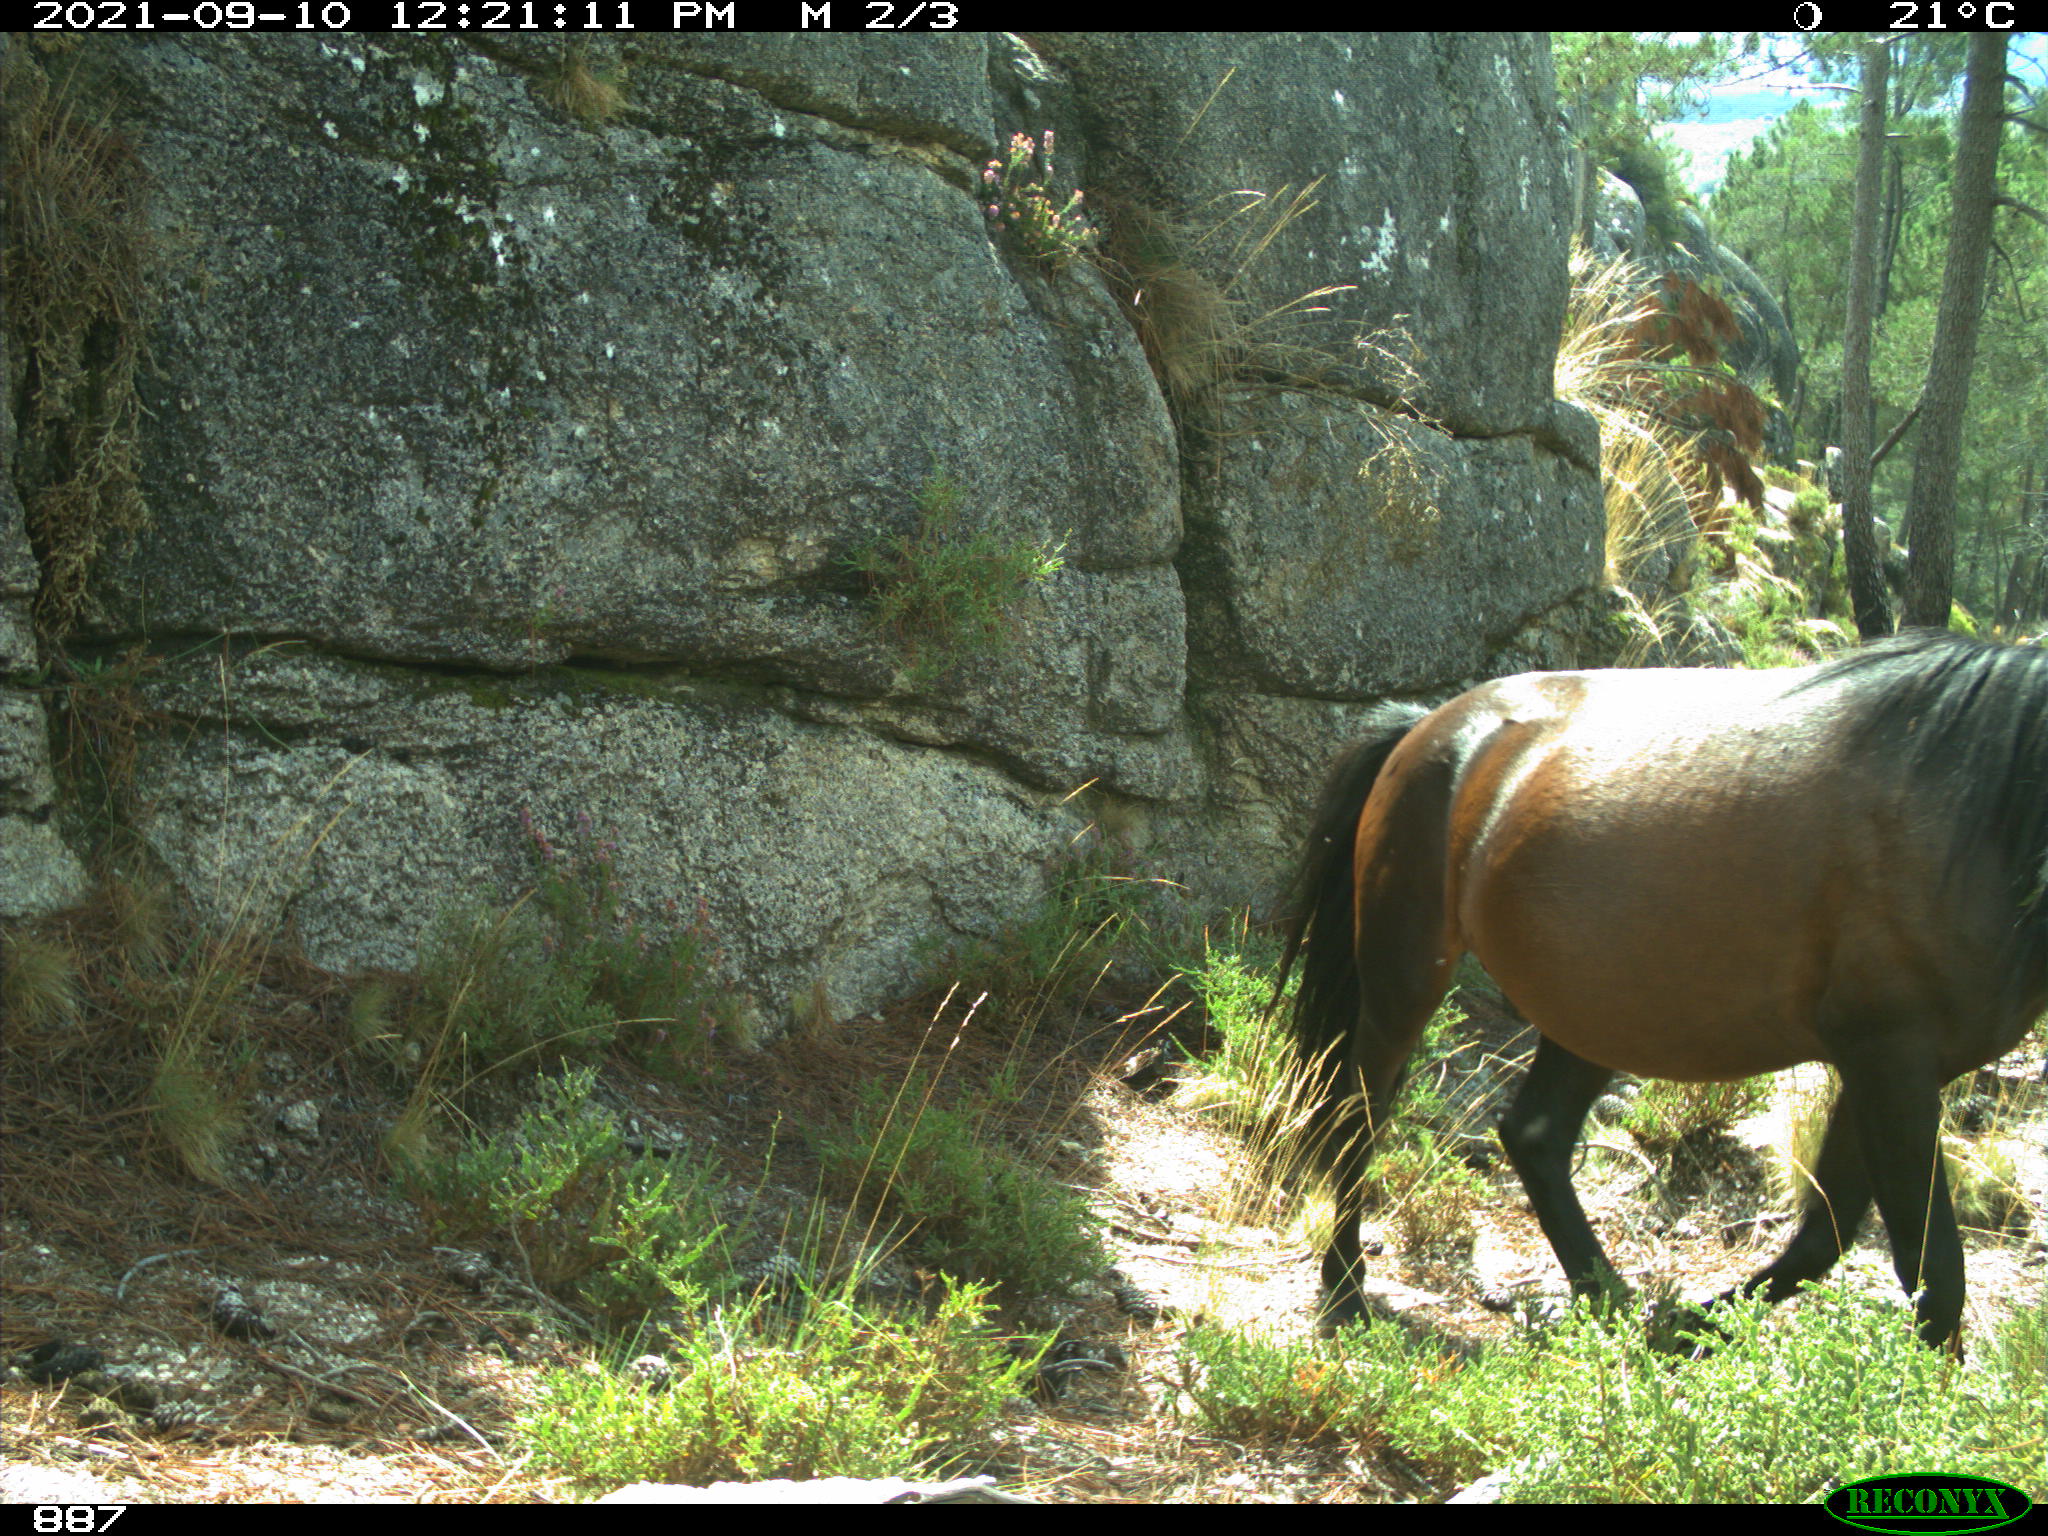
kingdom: Animalia
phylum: Chordata
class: Mammalia
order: Perissodactyla
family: Equidae
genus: Equus
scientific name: Equus caballus
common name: Horse
